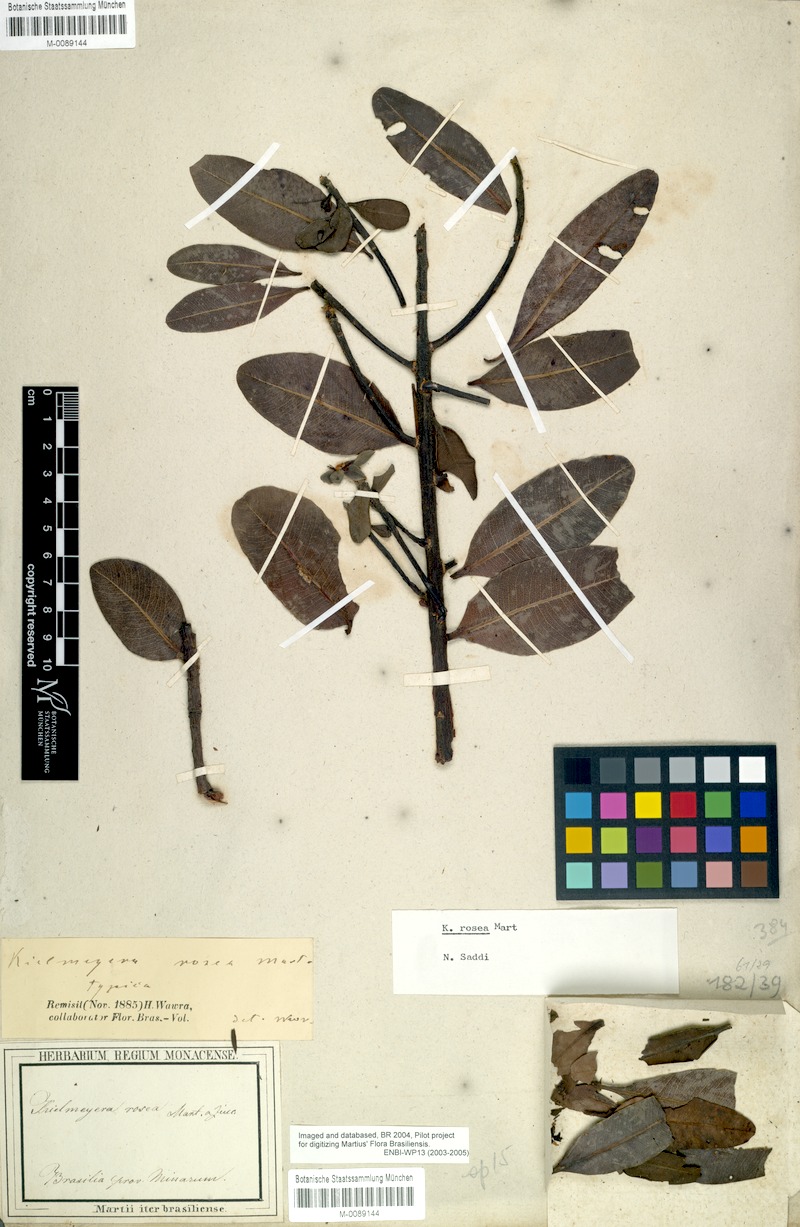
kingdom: Plantae
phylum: Tracheophyta
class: Magnoliopsida
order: Malpighiales
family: Calophyllaceae
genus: Kielmeyera
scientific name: Kielmeyera rosea
